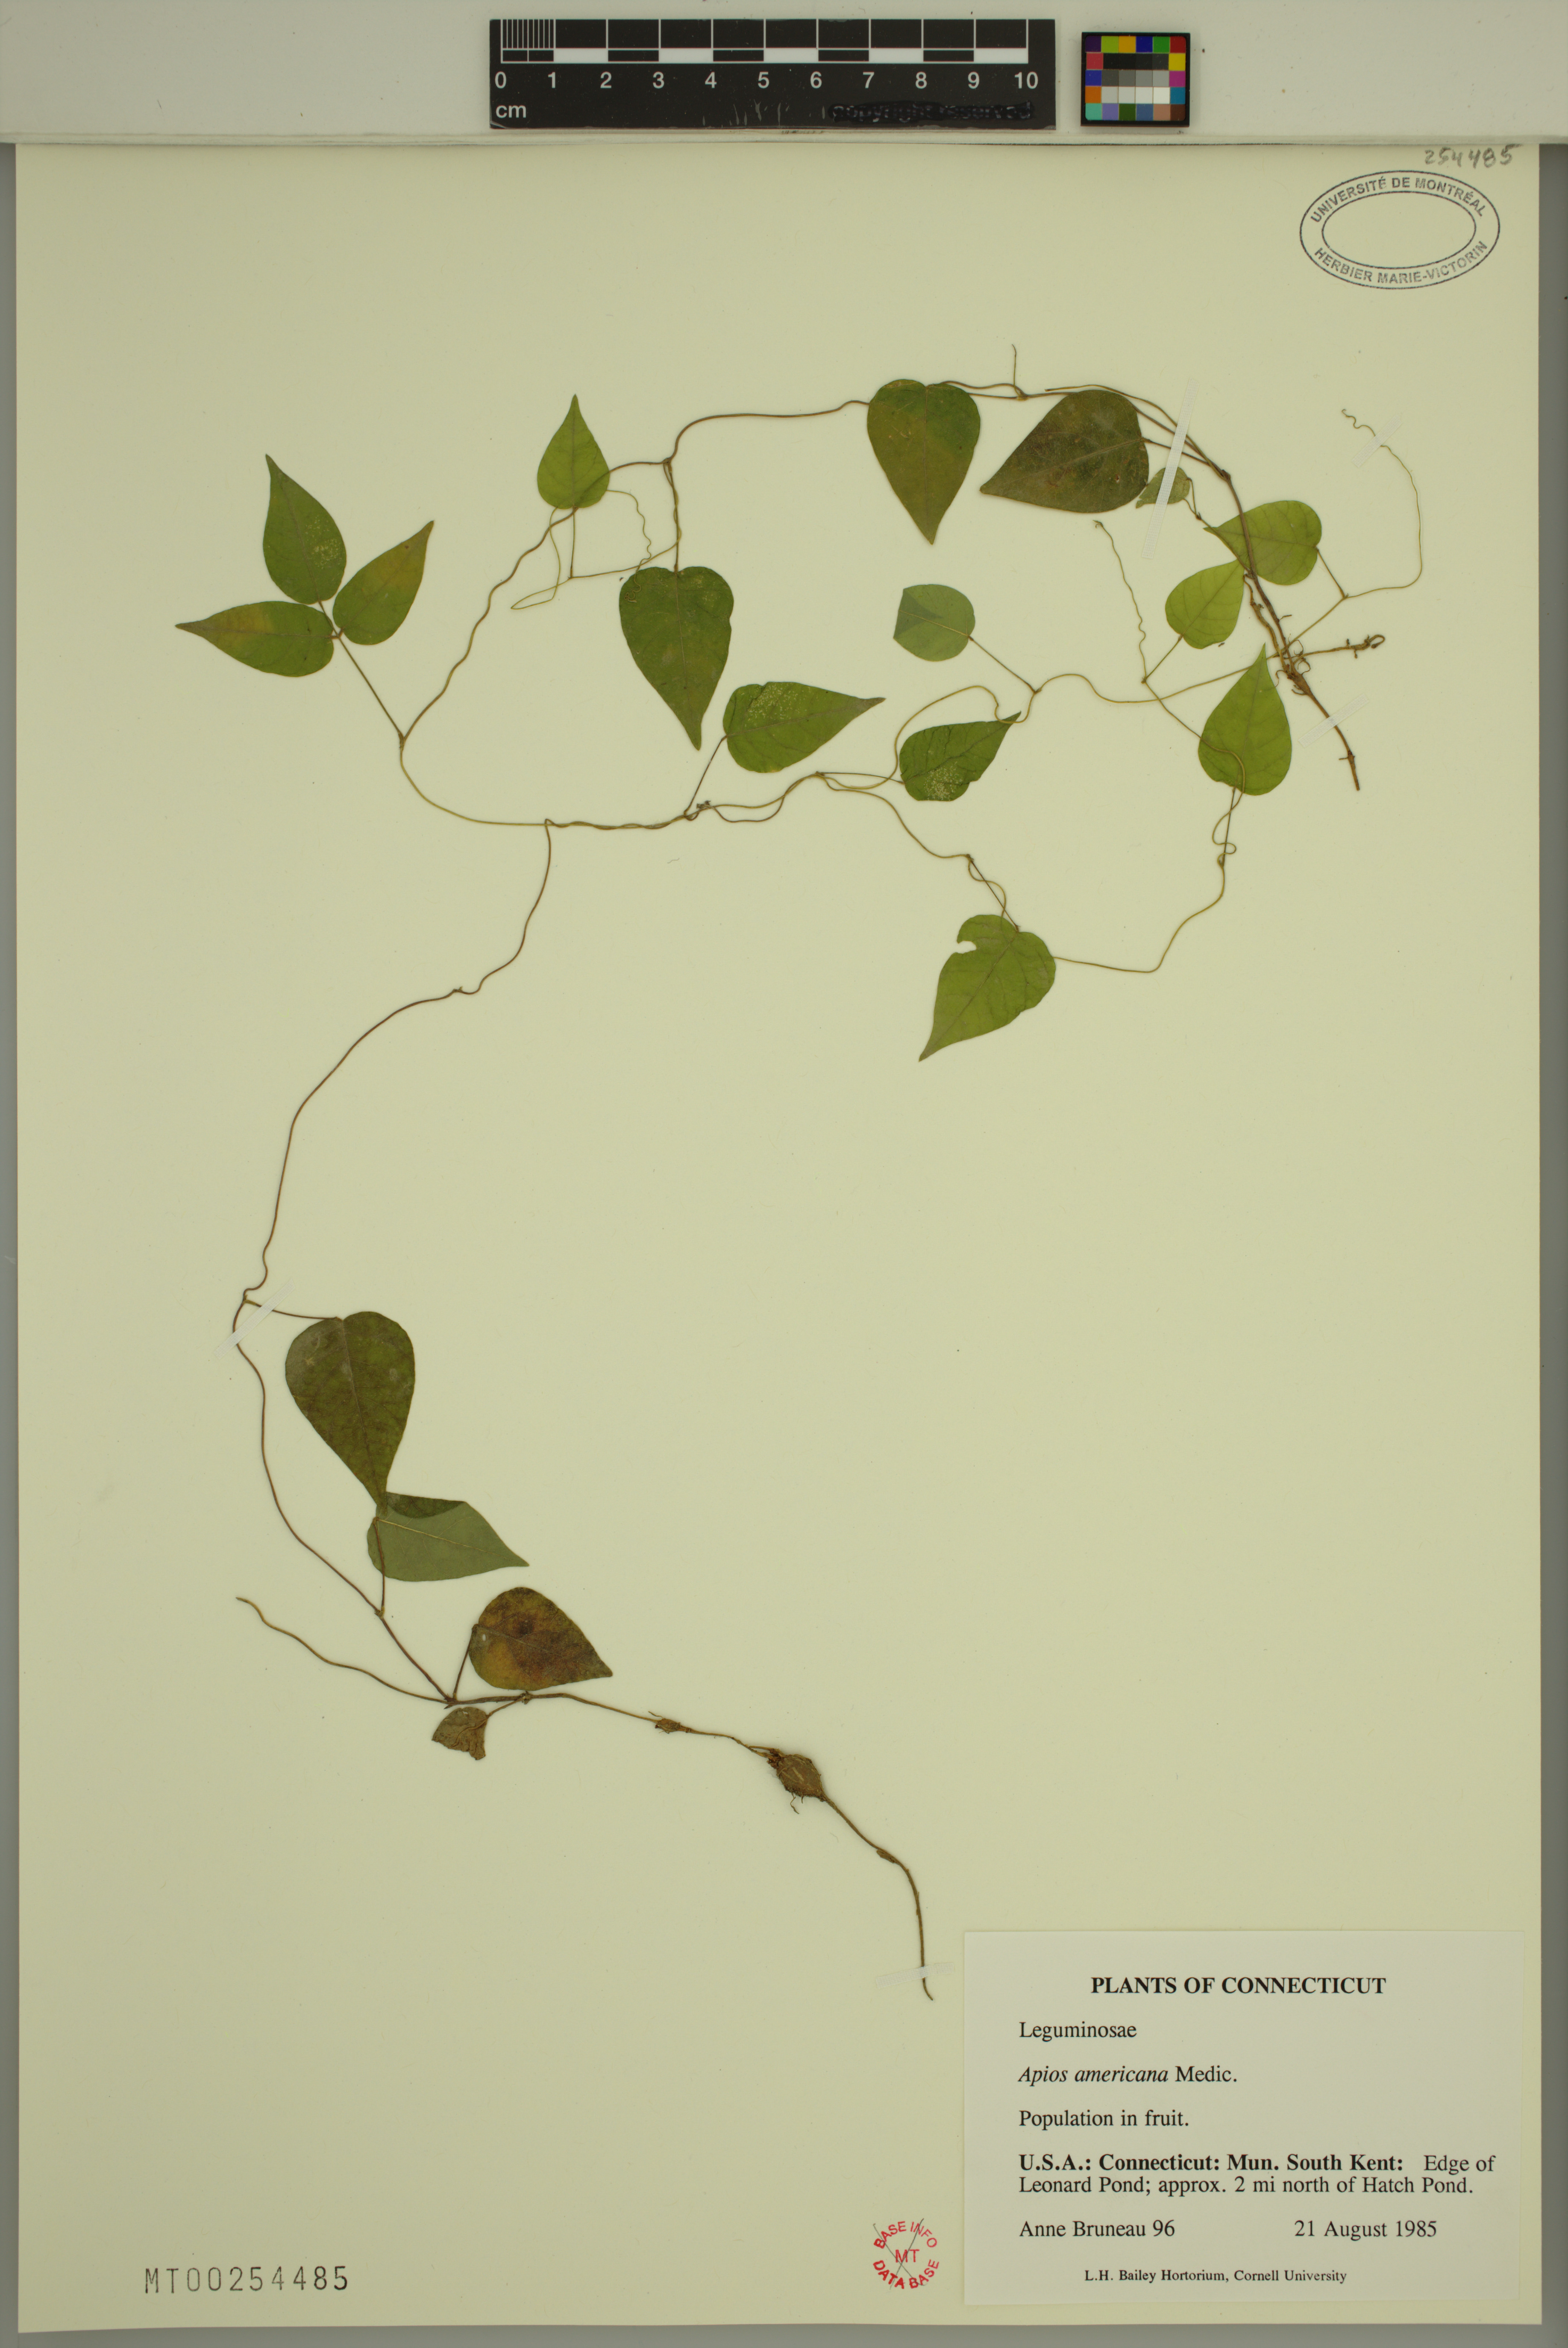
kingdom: Plantae
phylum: Tracheophyta
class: Magnoliopsida
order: Fabales
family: Fabaceae
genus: Apios
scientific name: Apios americana
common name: American potato-bean
